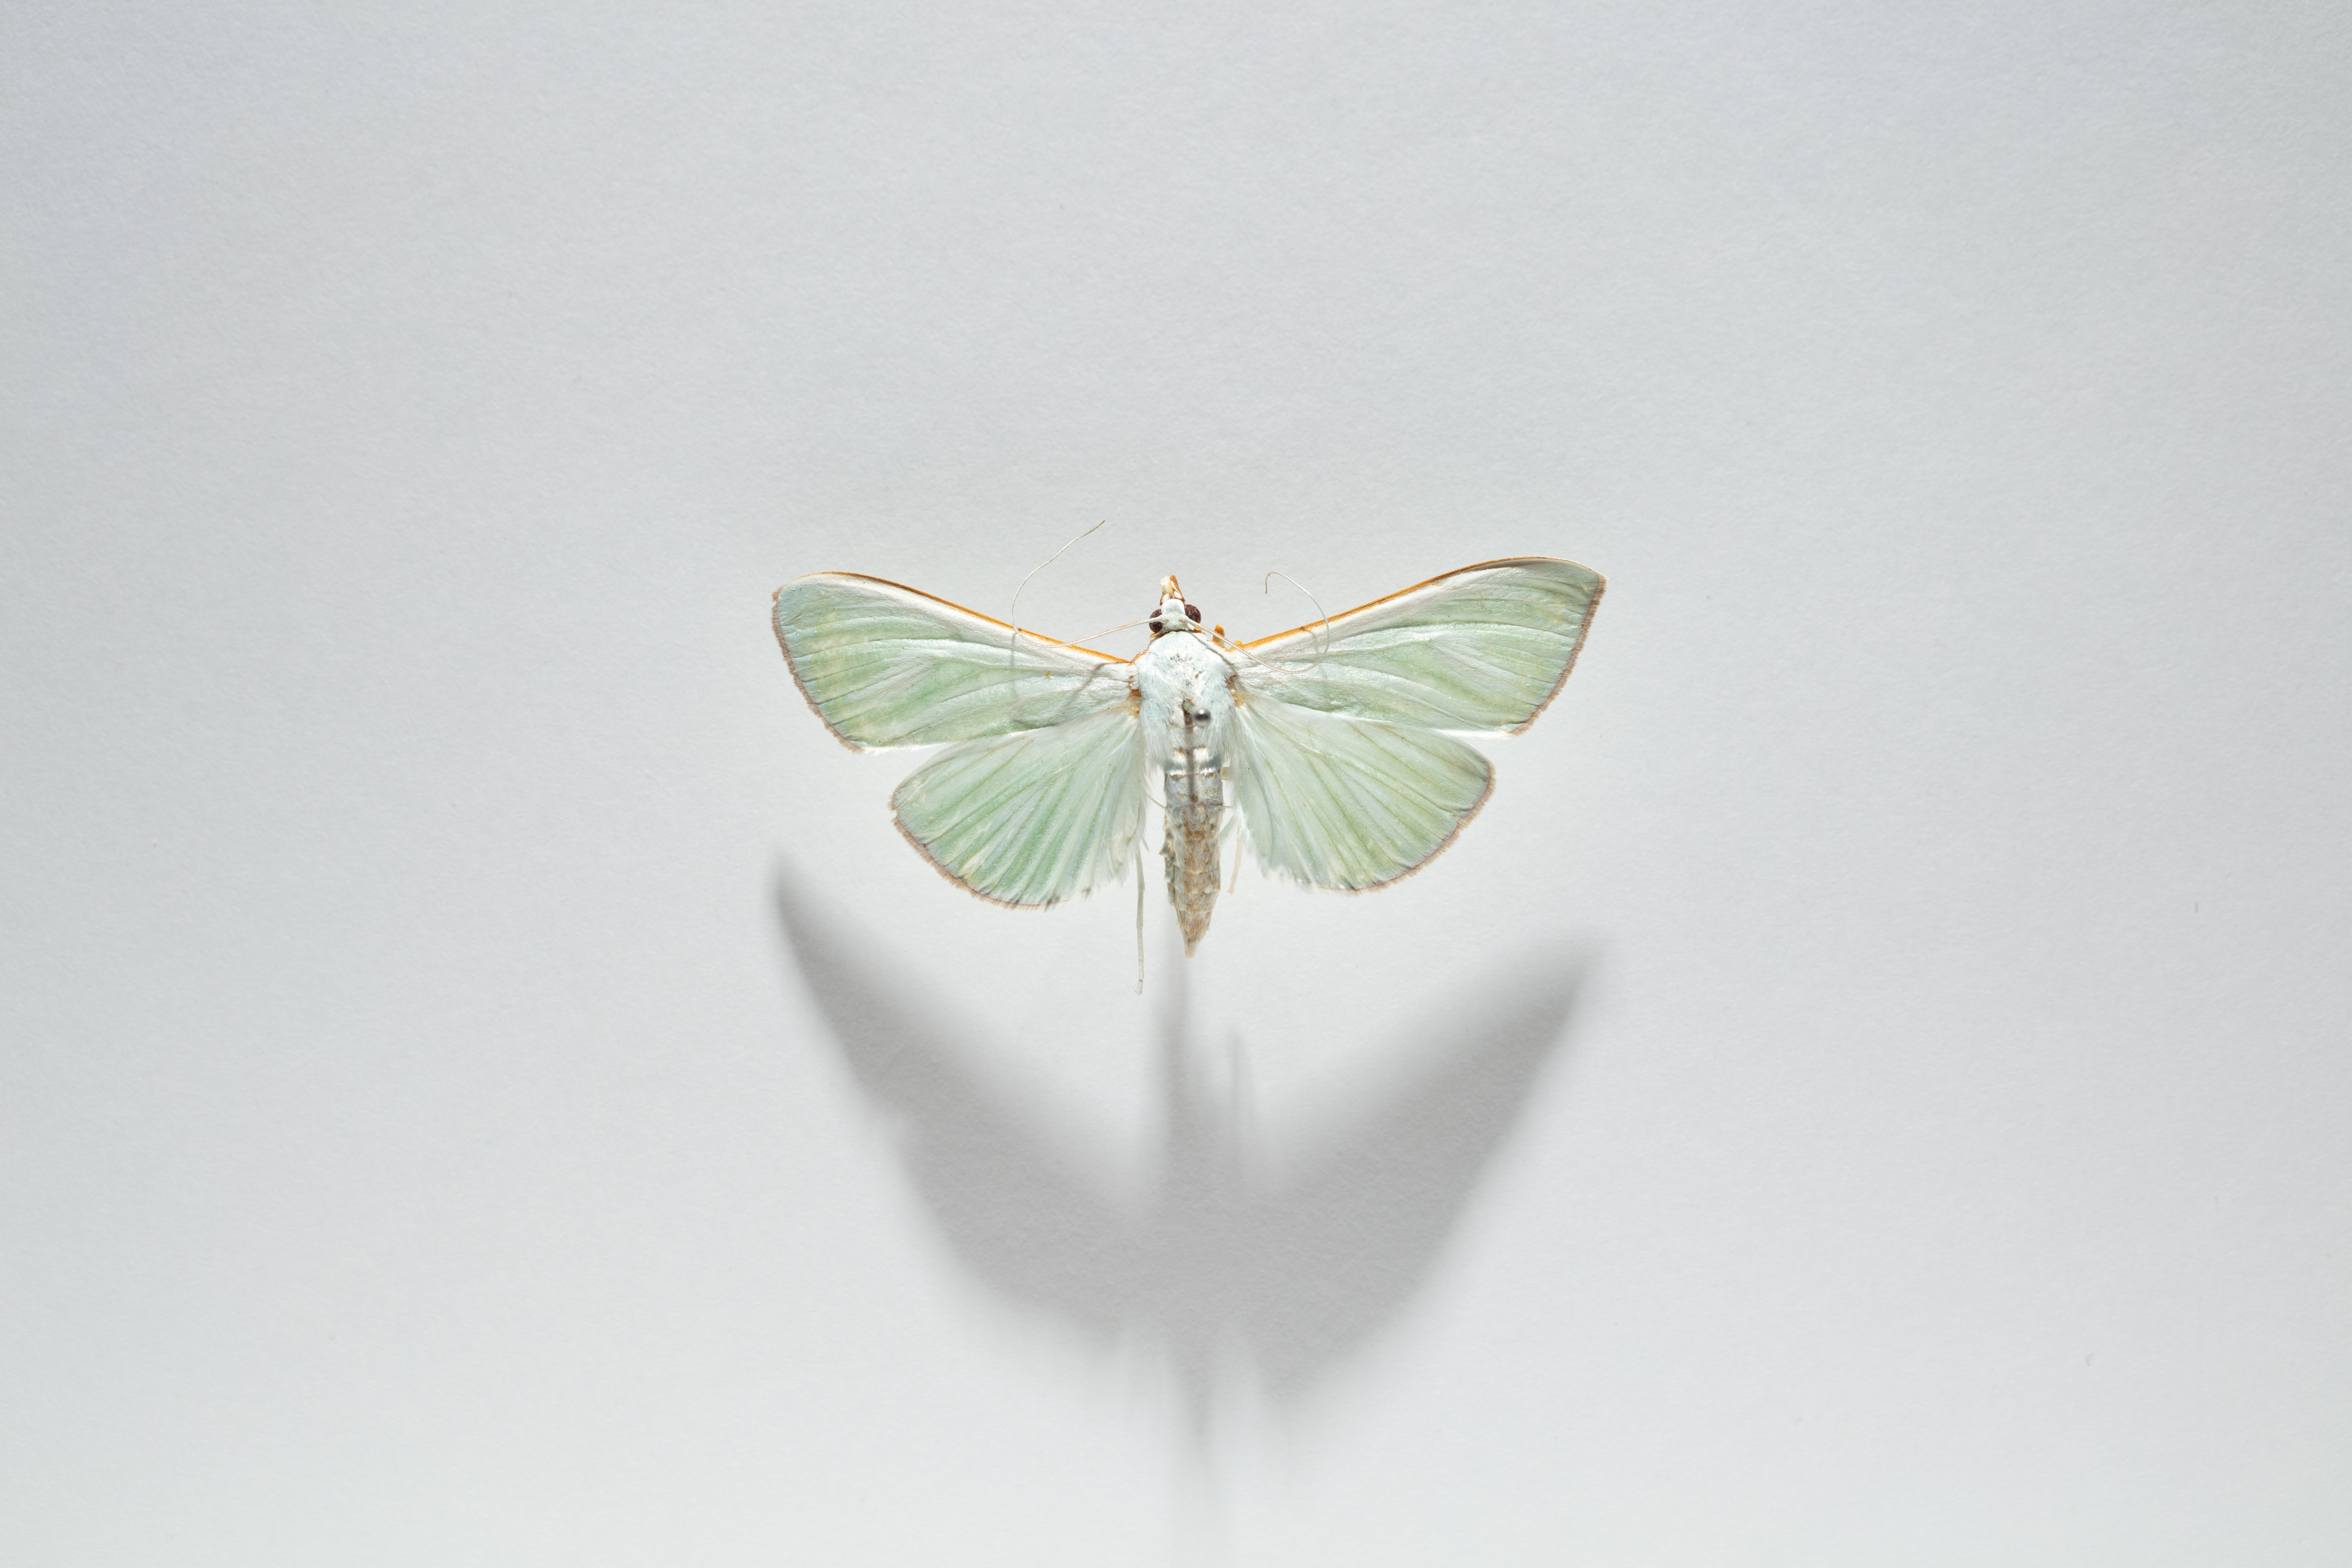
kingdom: Animalia
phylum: Arthropoda
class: Insecta
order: Lepidoptera
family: Crambidae
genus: Stemorrhages
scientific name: Stemorrhages oceanitis
